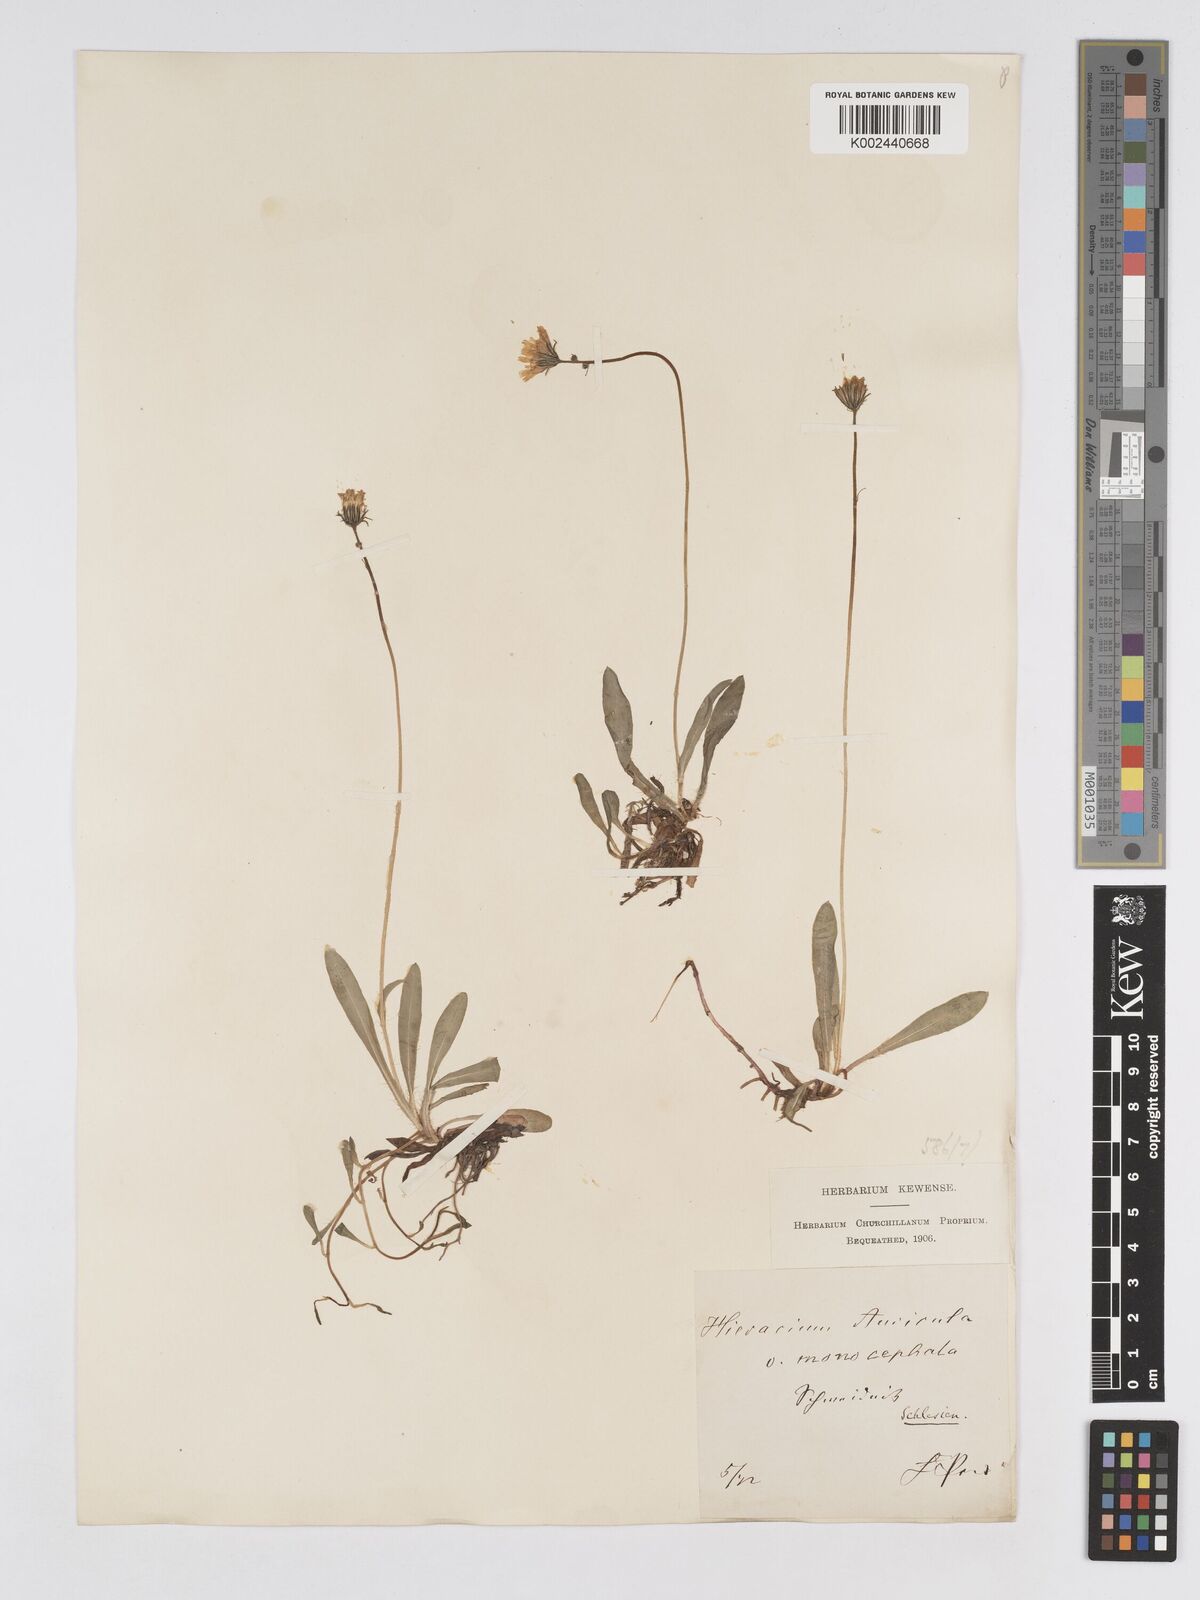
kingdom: Plantae
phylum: Tracheophyta
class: Magnoliopsida
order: Asterales
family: Asteraceae
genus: Pilosella
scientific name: Pilosella floribunda
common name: Glaucous hawkweed
